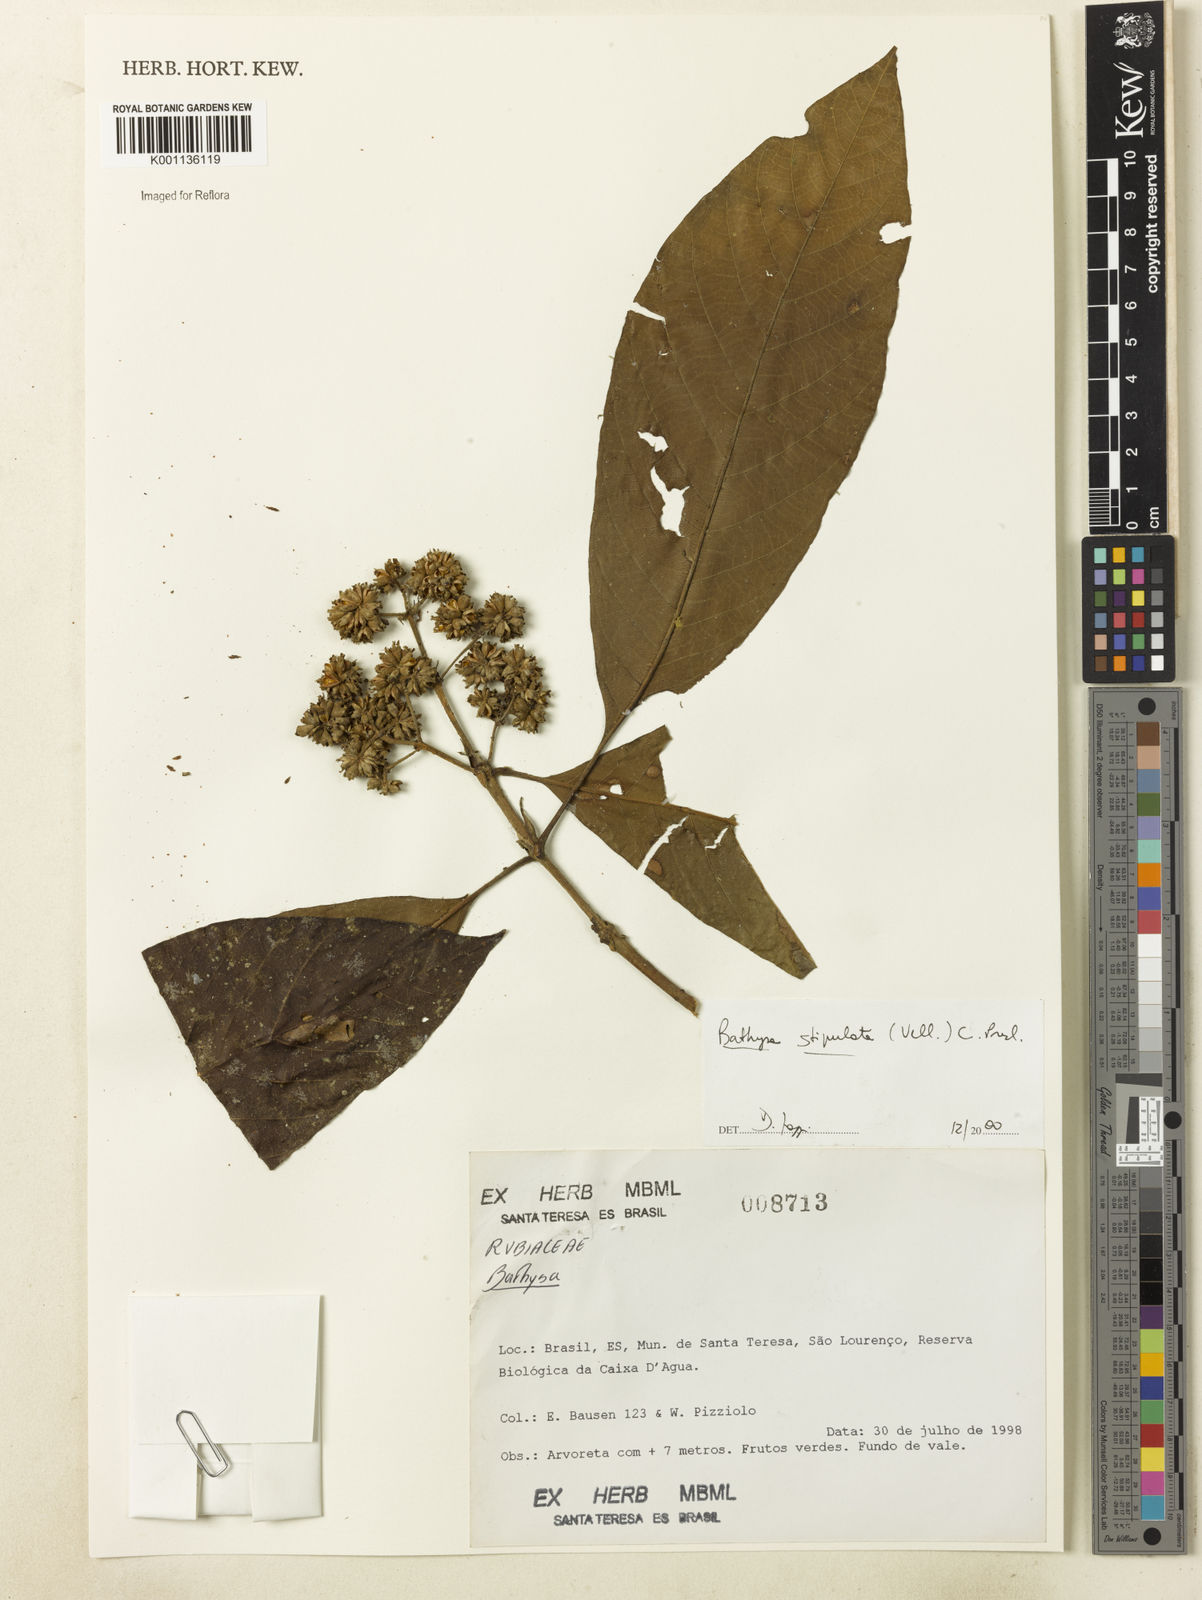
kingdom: Plantae
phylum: Tracheophyta
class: Magnoliopsida
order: Gentianales
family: Rubiaceae
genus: Bathysa
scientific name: Bathysa stipulata
